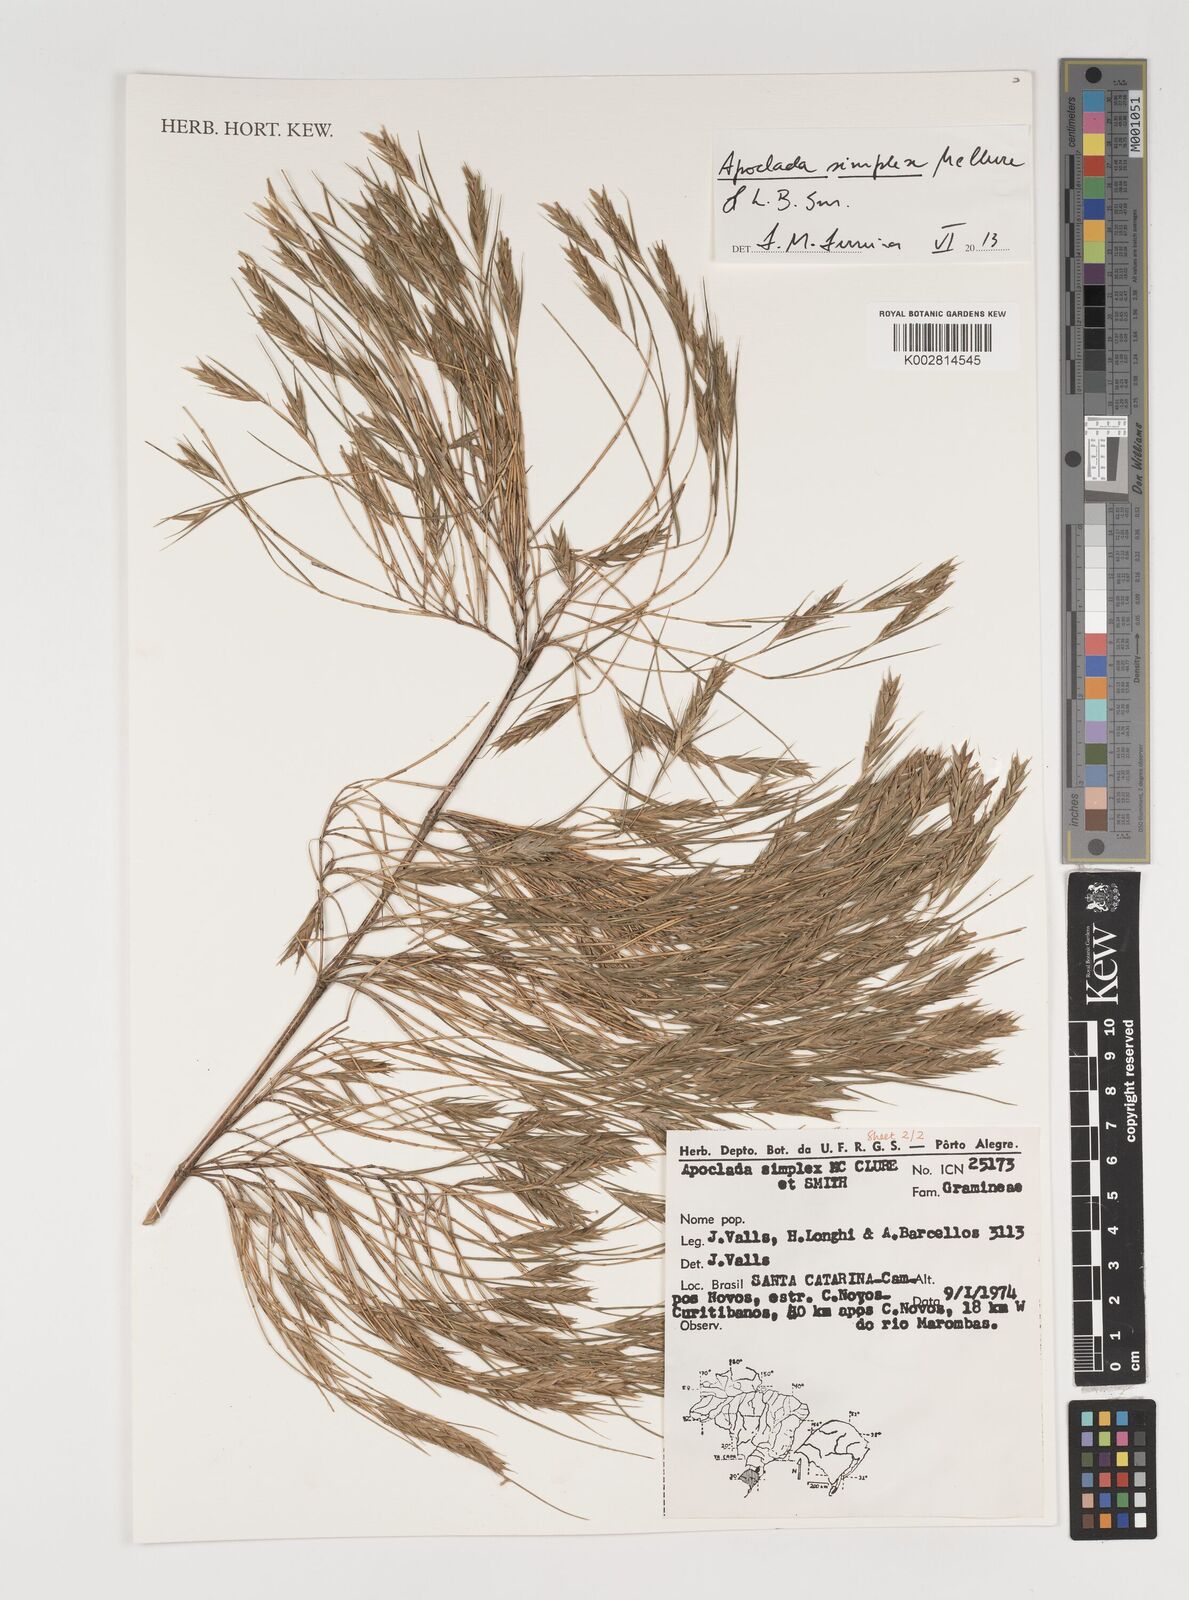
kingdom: Plantae
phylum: Tracheophyta
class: Liliopsida
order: Poales
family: Poaceae
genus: Apoclada
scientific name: Apoclada simplex
